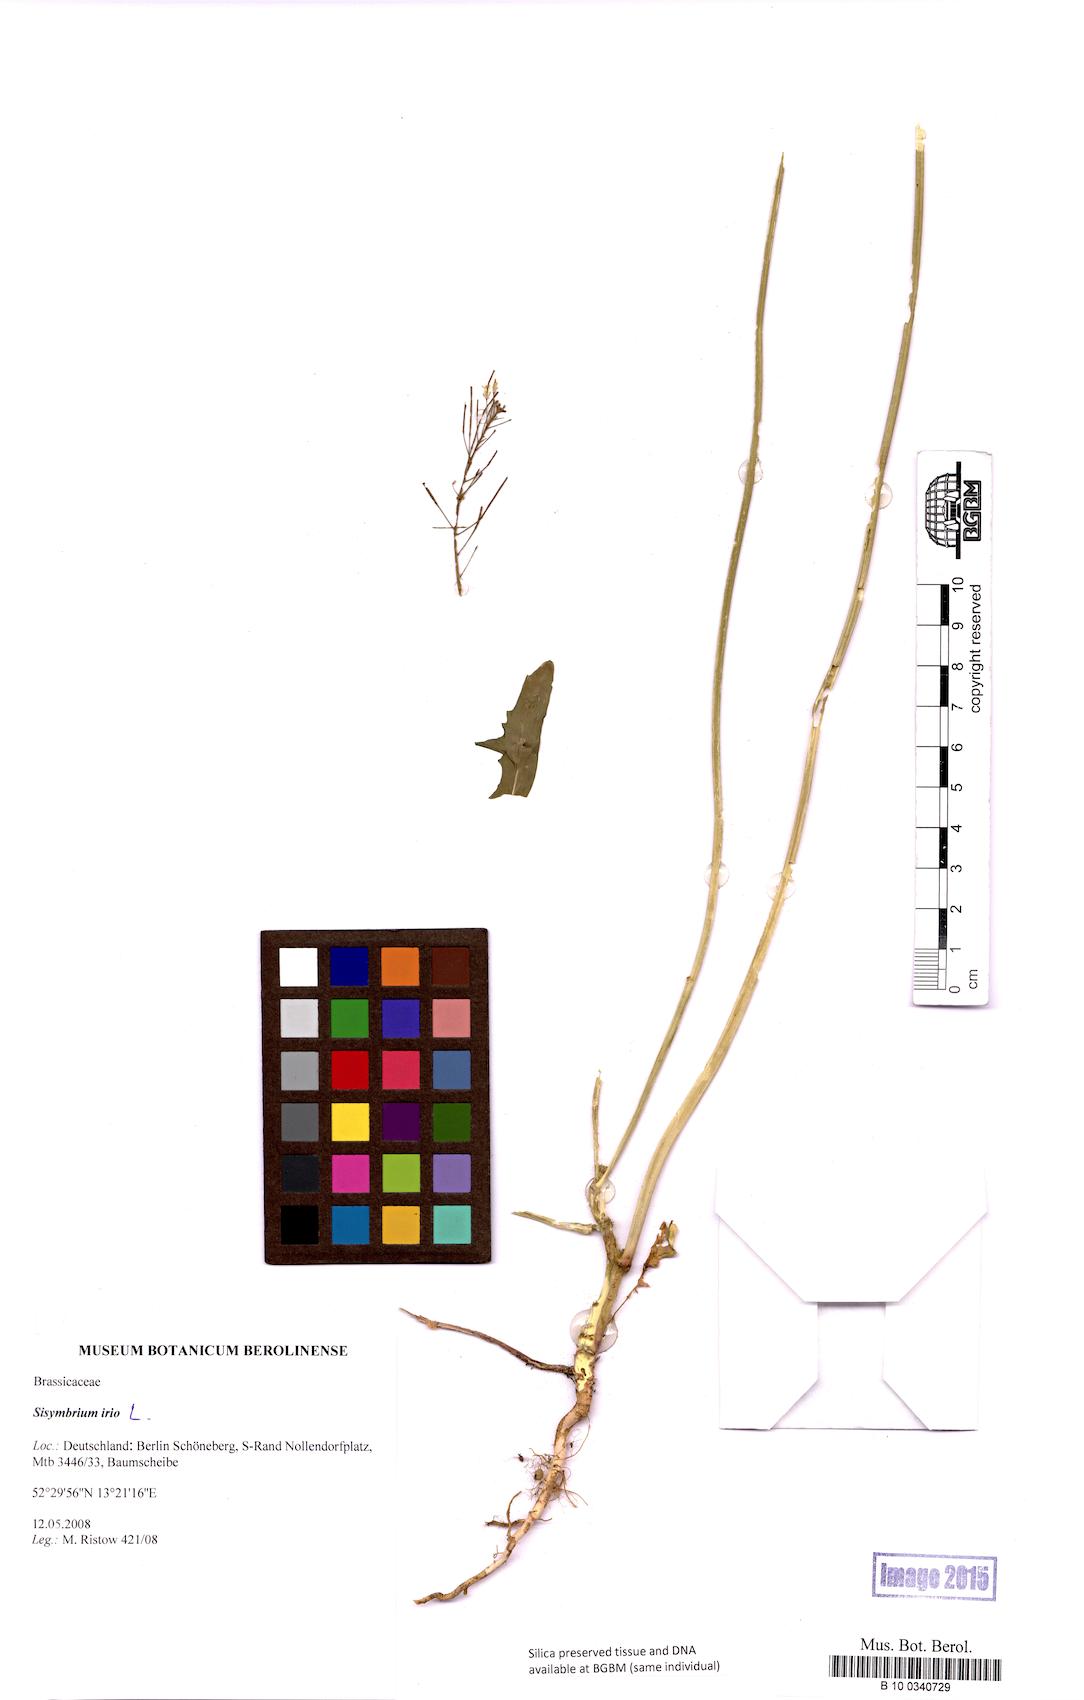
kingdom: Plantae
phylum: Tracheophyta
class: Magnoliopsida
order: Brassicales
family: Brassicaceae
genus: Sisymbrium
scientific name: Sisymbrium irio
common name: London rocket
